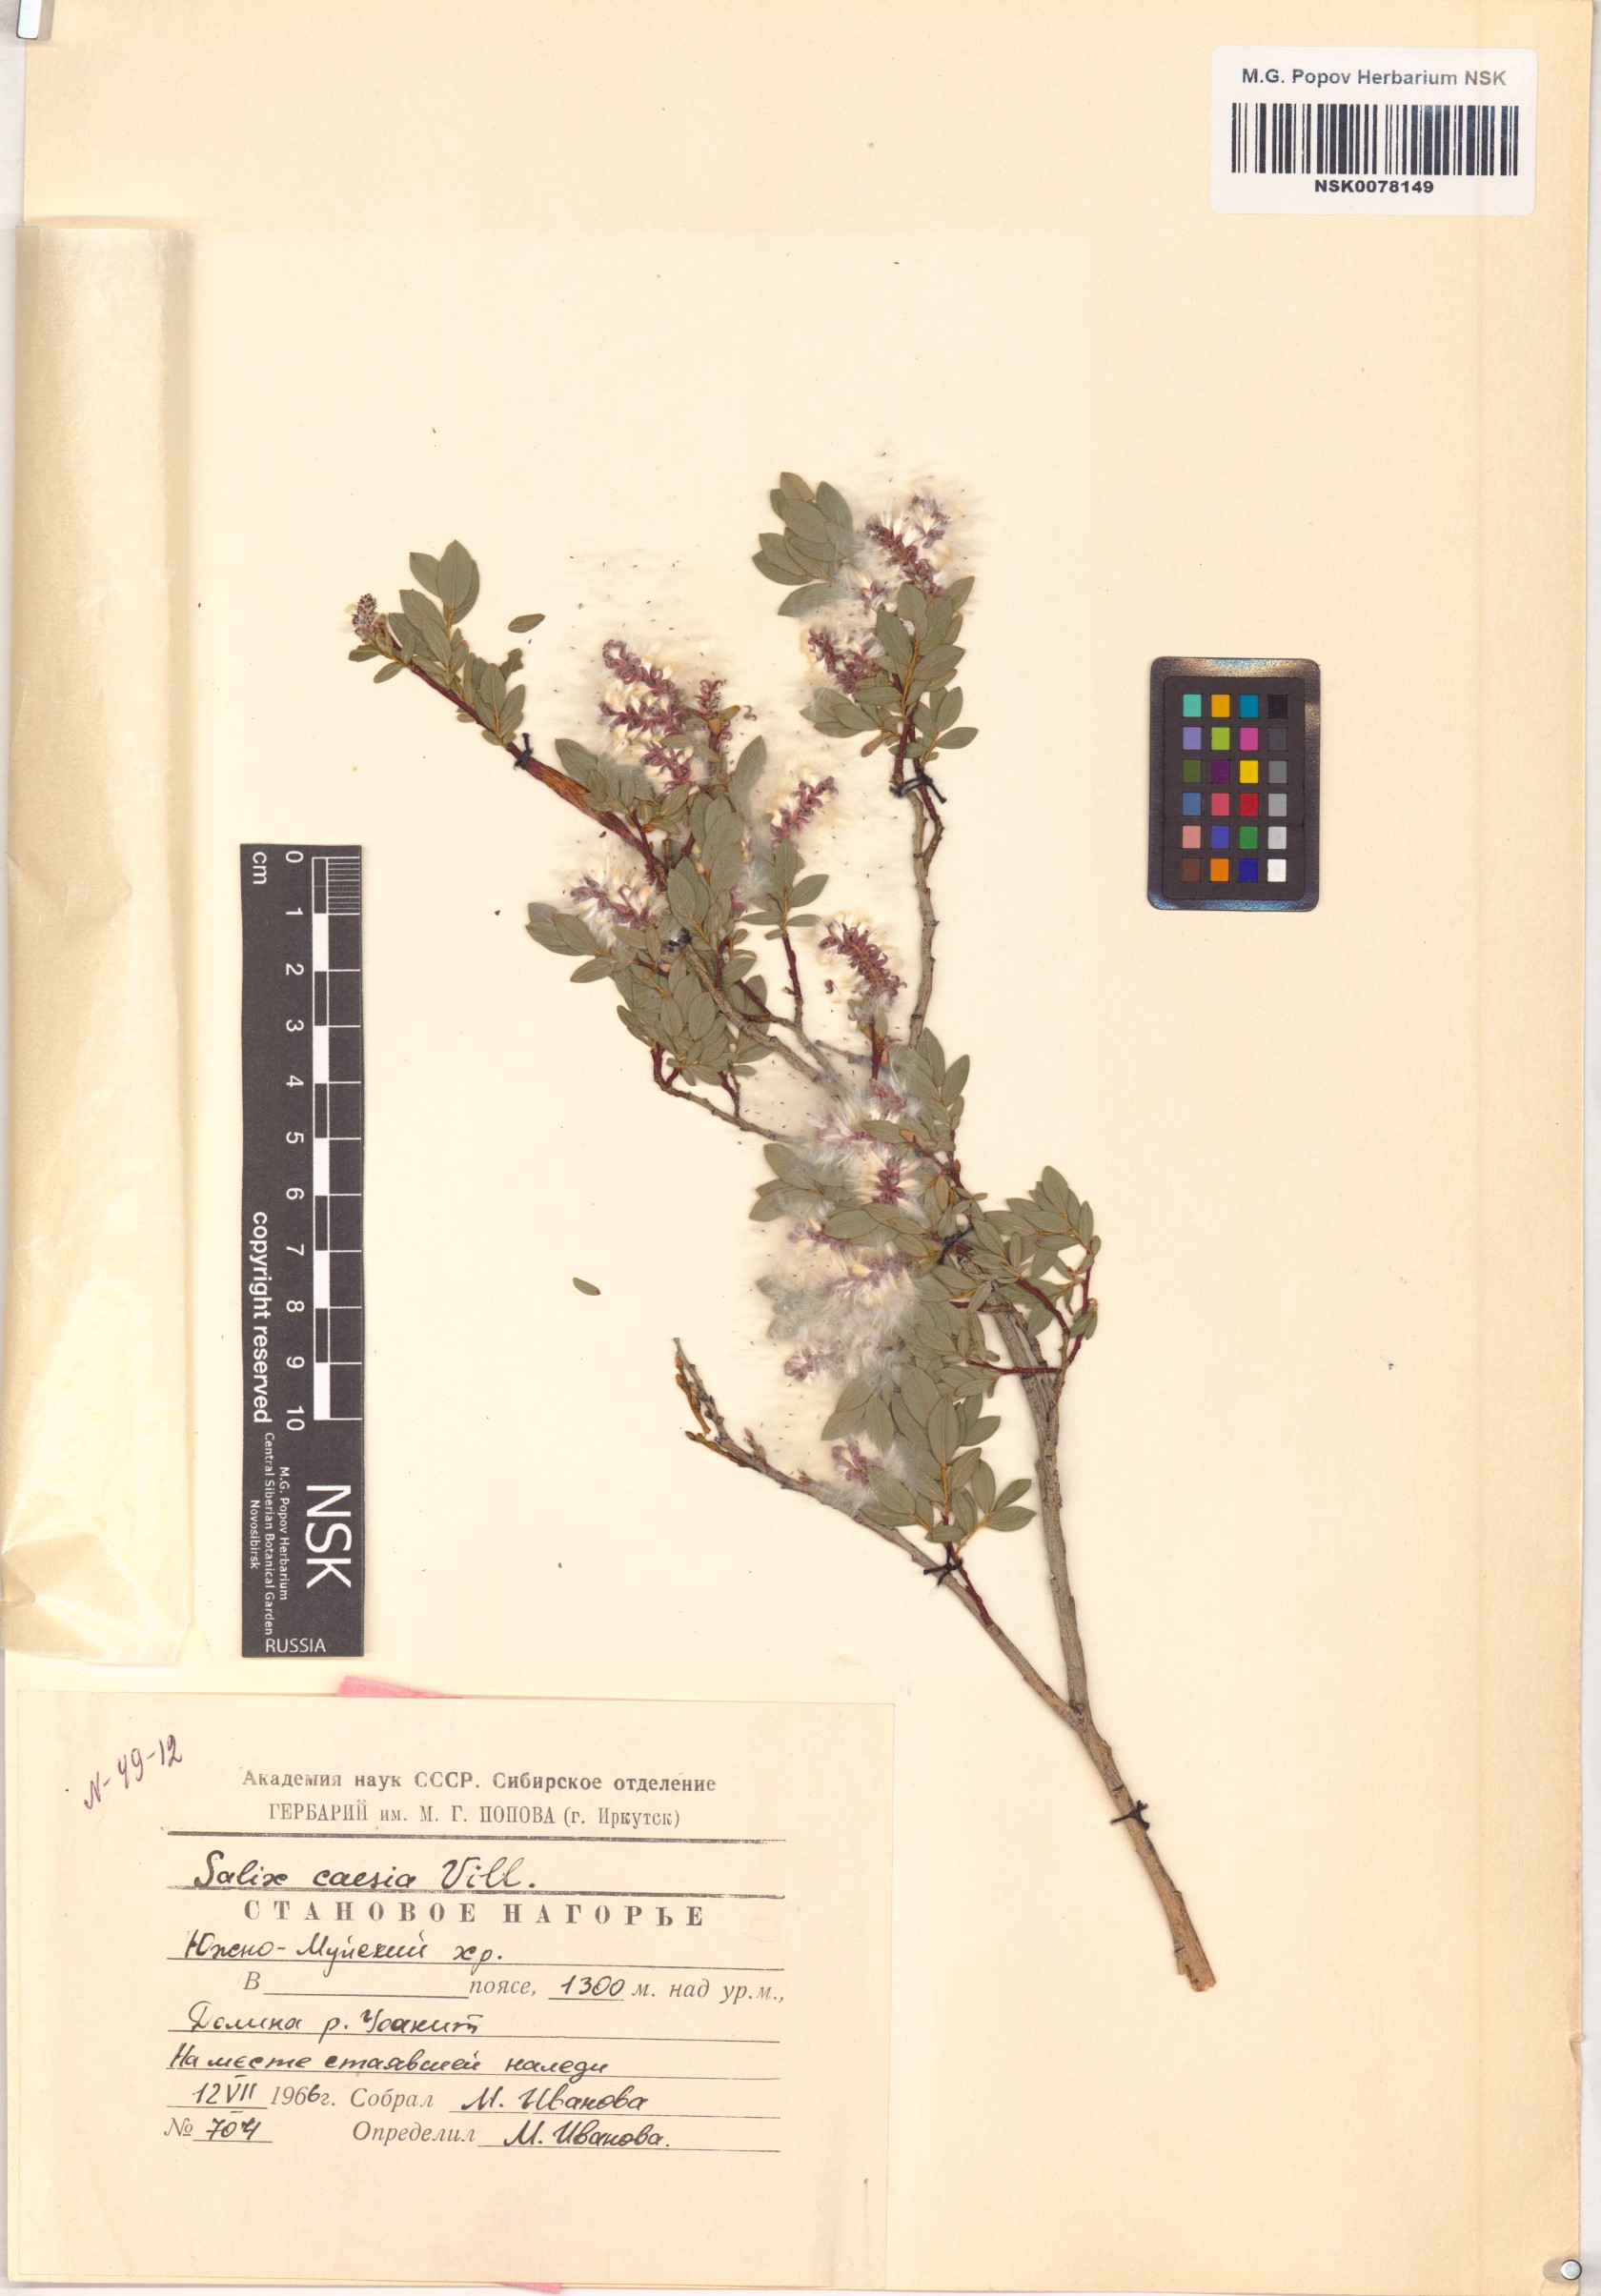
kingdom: Plantae
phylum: Tracheophyta
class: Magnoliopsida
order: Malpighiales
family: Salicaceae
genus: Salix
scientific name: Salix caesia
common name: Blue willow
